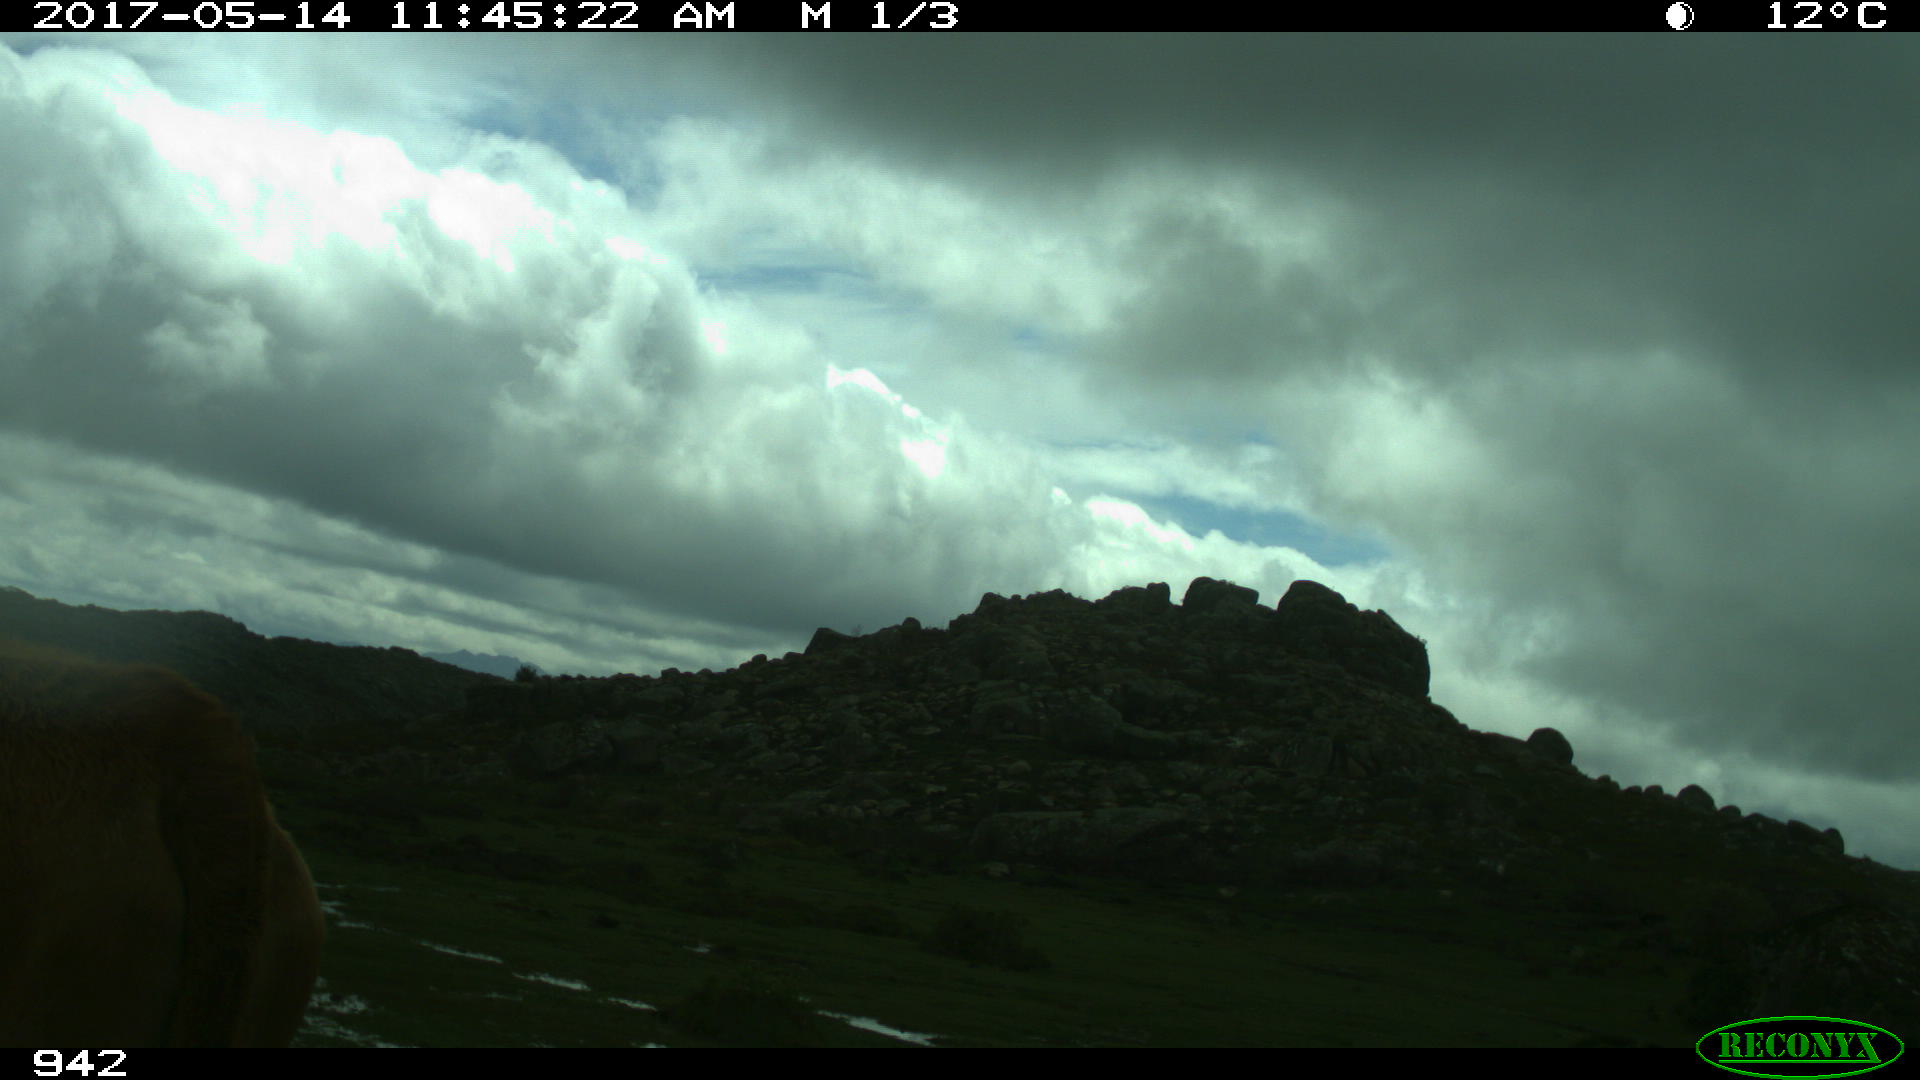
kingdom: Animalia
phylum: Chordata
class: Mammalia
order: Artiodactyla
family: Bovidae
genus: Bos
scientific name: Bos taurus
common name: Domesticated cattle
